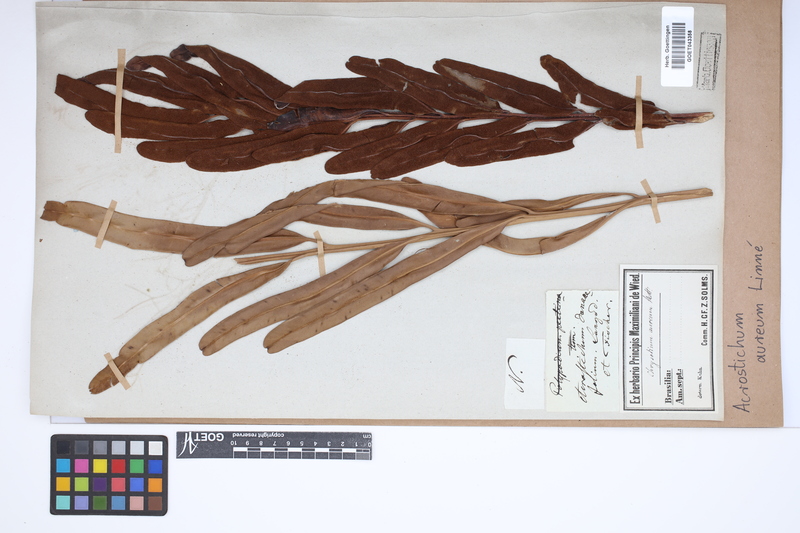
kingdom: Plantae
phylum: Tracheophyta
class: Polypodiopsida
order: Polypodiales
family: Pteridaceae
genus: Acrostichum
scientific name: Acrostichum aureum
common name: Leather fern
